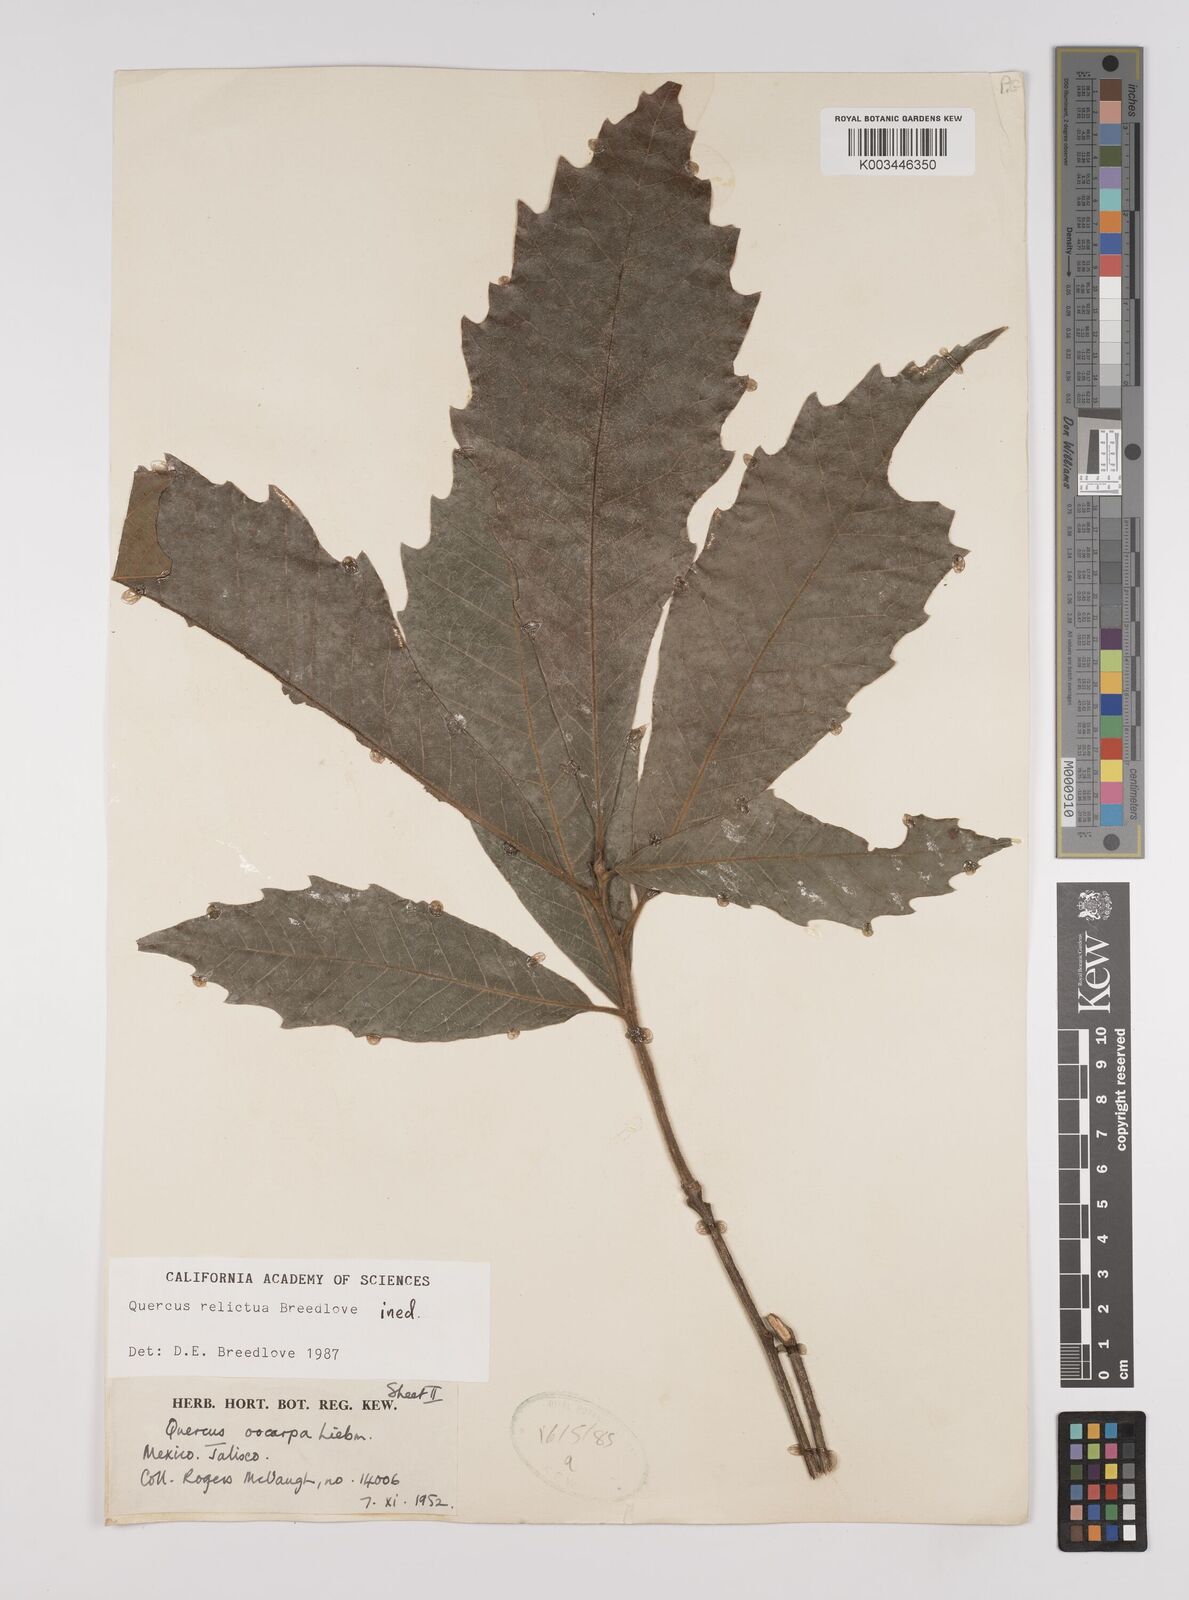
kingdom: Plantae
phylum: Tracheophyta
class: Magnoliopsida
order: Fagales
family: Fagaceae
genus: Quercus
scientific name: Quercus
